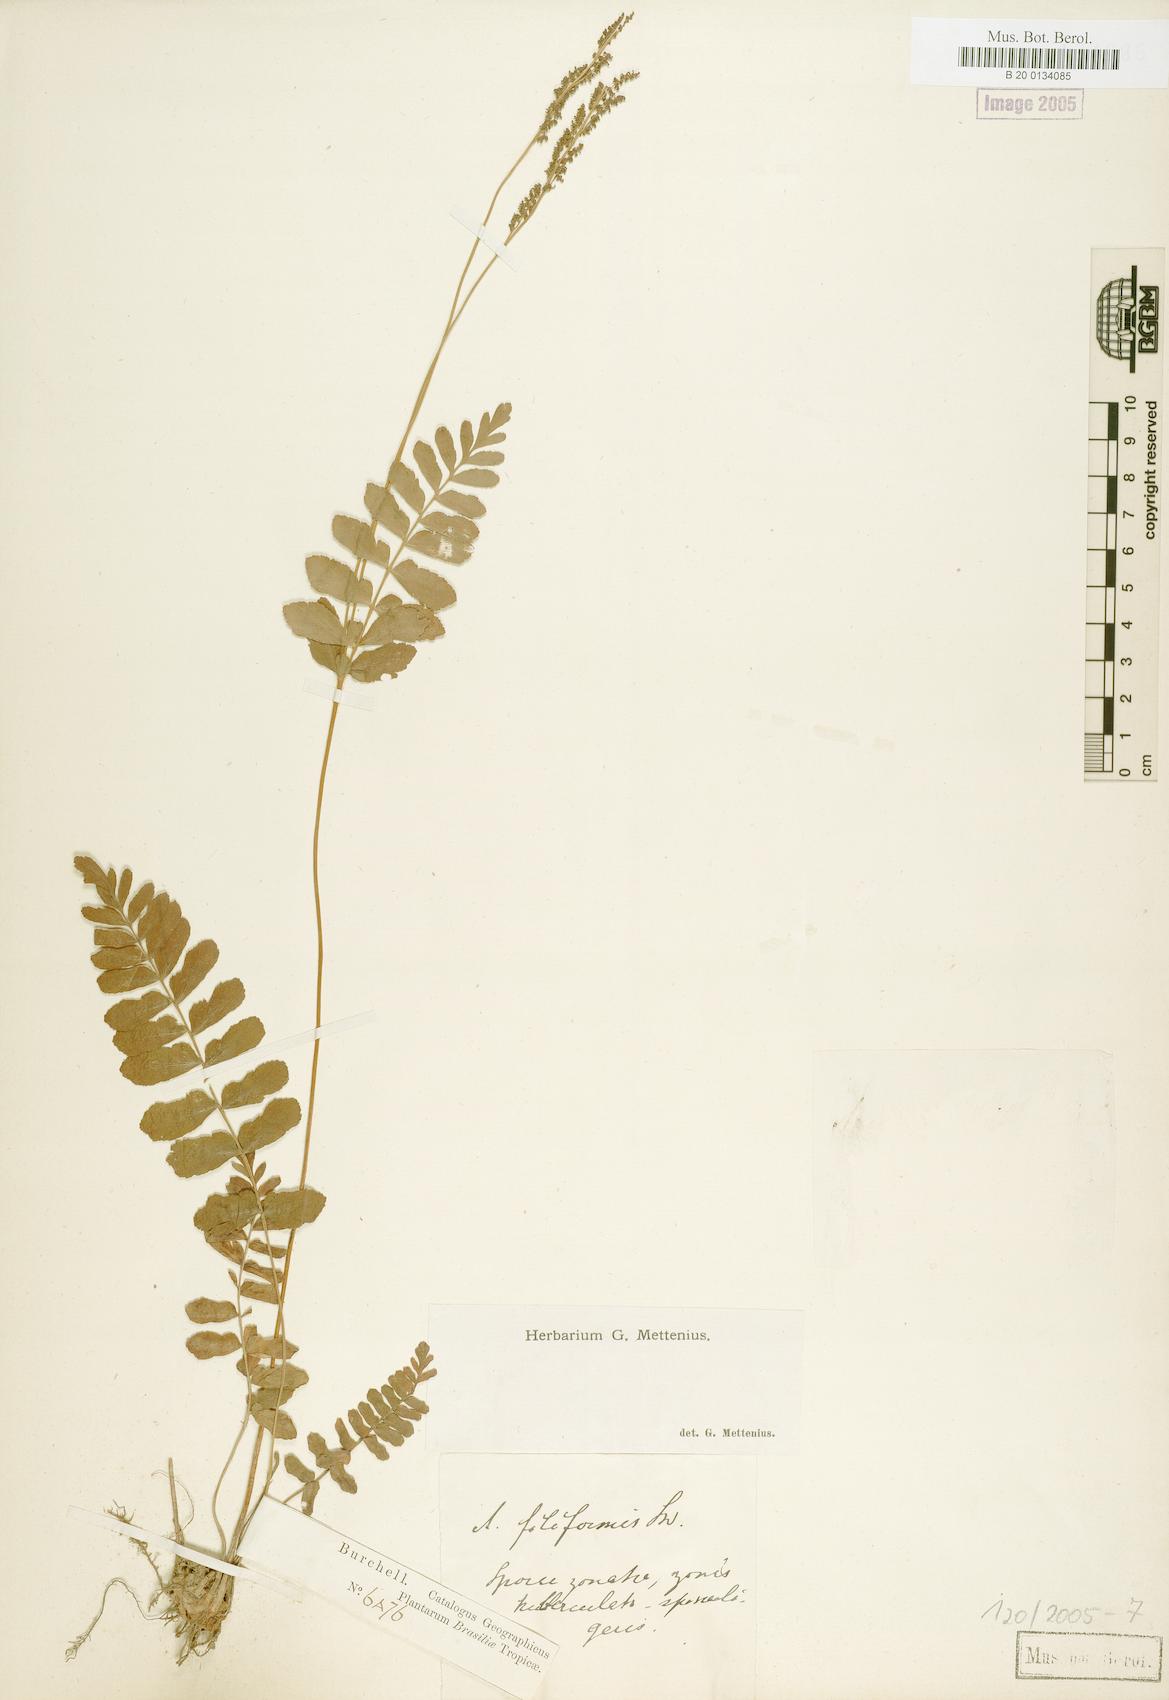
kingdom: Plantae
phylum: Tracheophyta
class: Polypodiopsida
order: Schizaeales
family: Anemiaceae
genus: Anemia
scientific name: Anemia hispida
